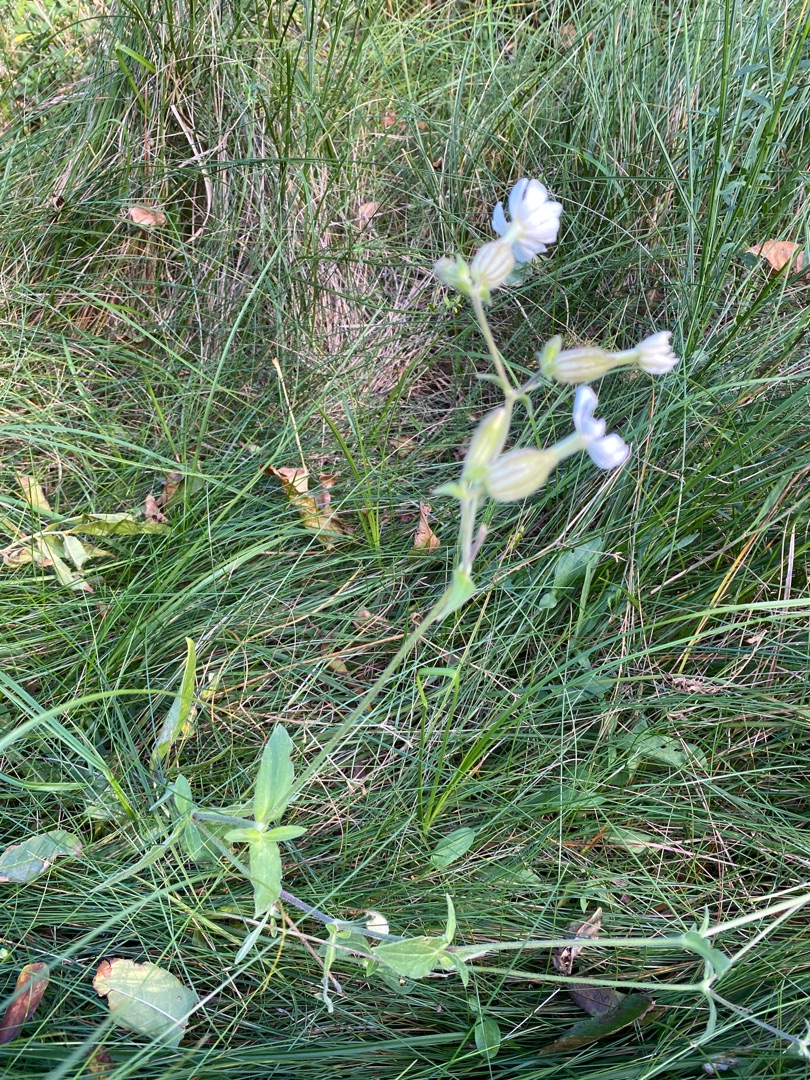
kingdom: Plantae
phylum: Tracheophyta
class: Magnoliopsida
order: Caryophyllales
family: Caryophyllaceae
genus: Silene
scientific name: Silene latifolia
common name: Aftenpragtstjerne
